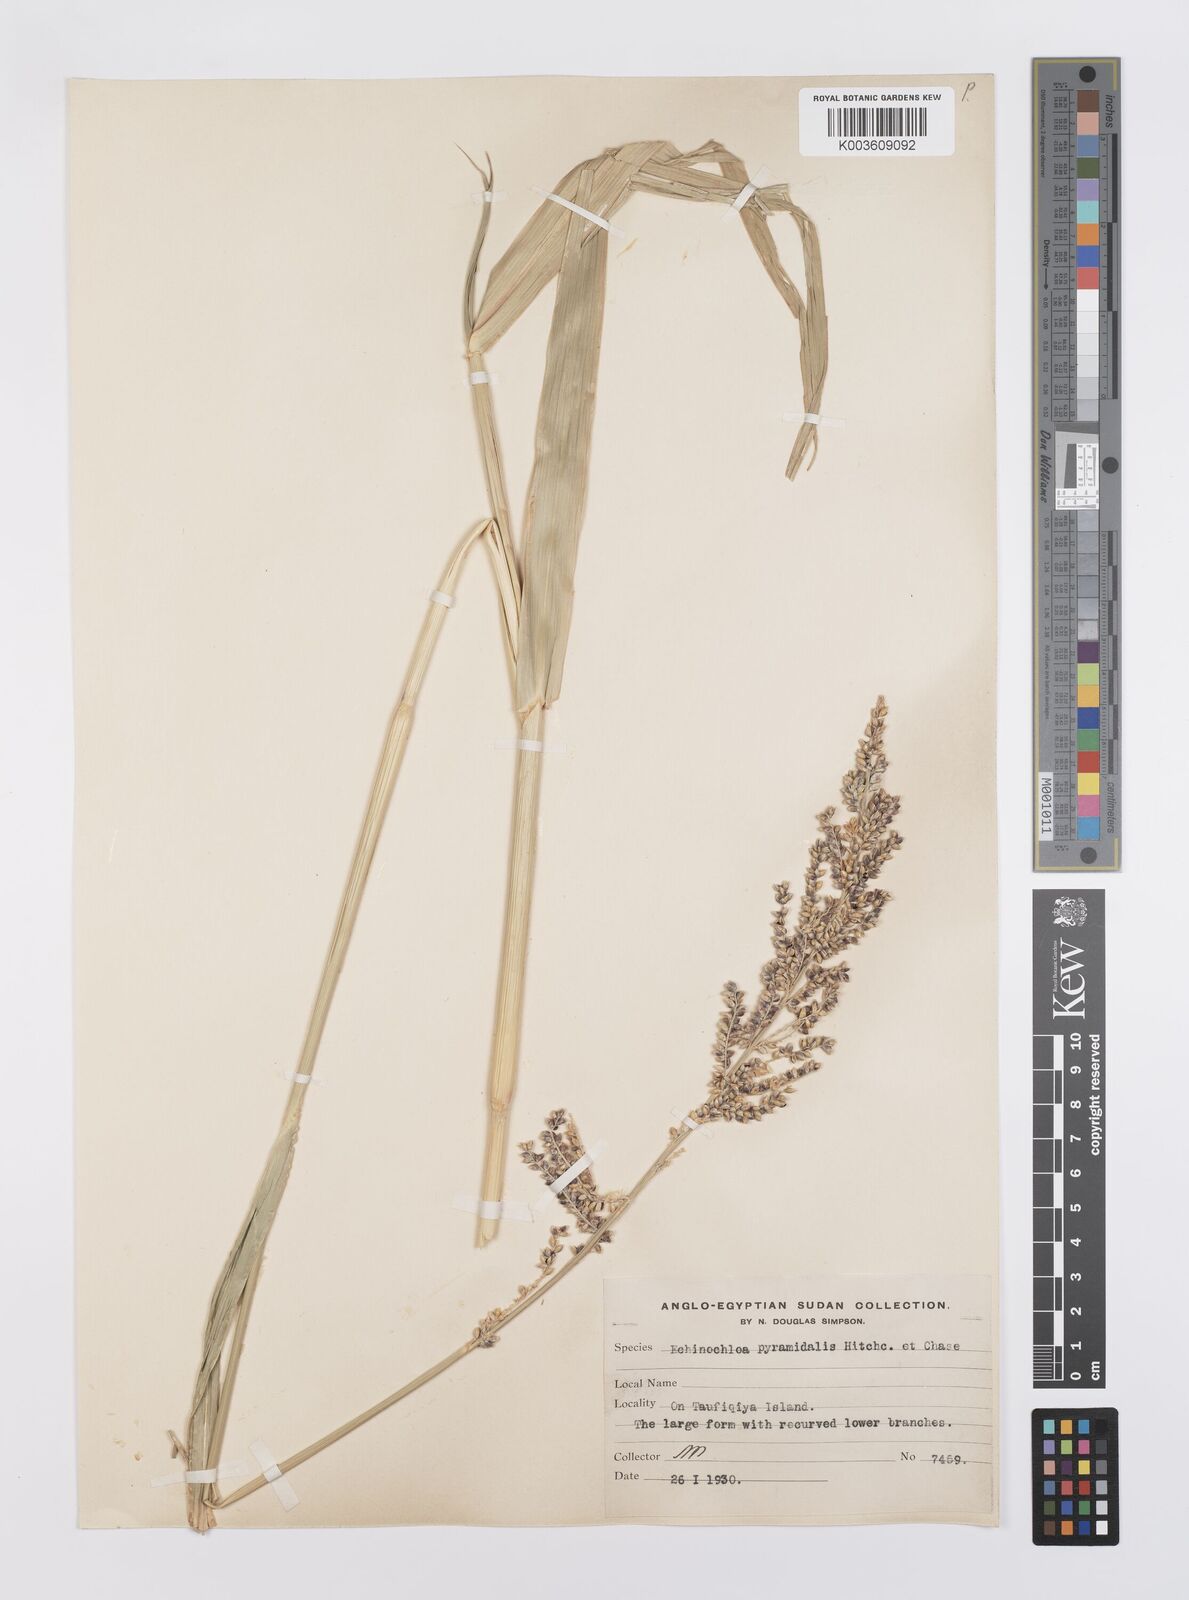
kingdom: Plantae
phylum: Tracheophyta
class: Liliopsida
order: Poales
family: Poaceae
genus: Echinochloa
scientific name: Echinochloa pyramidalis
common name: Antelope grass
